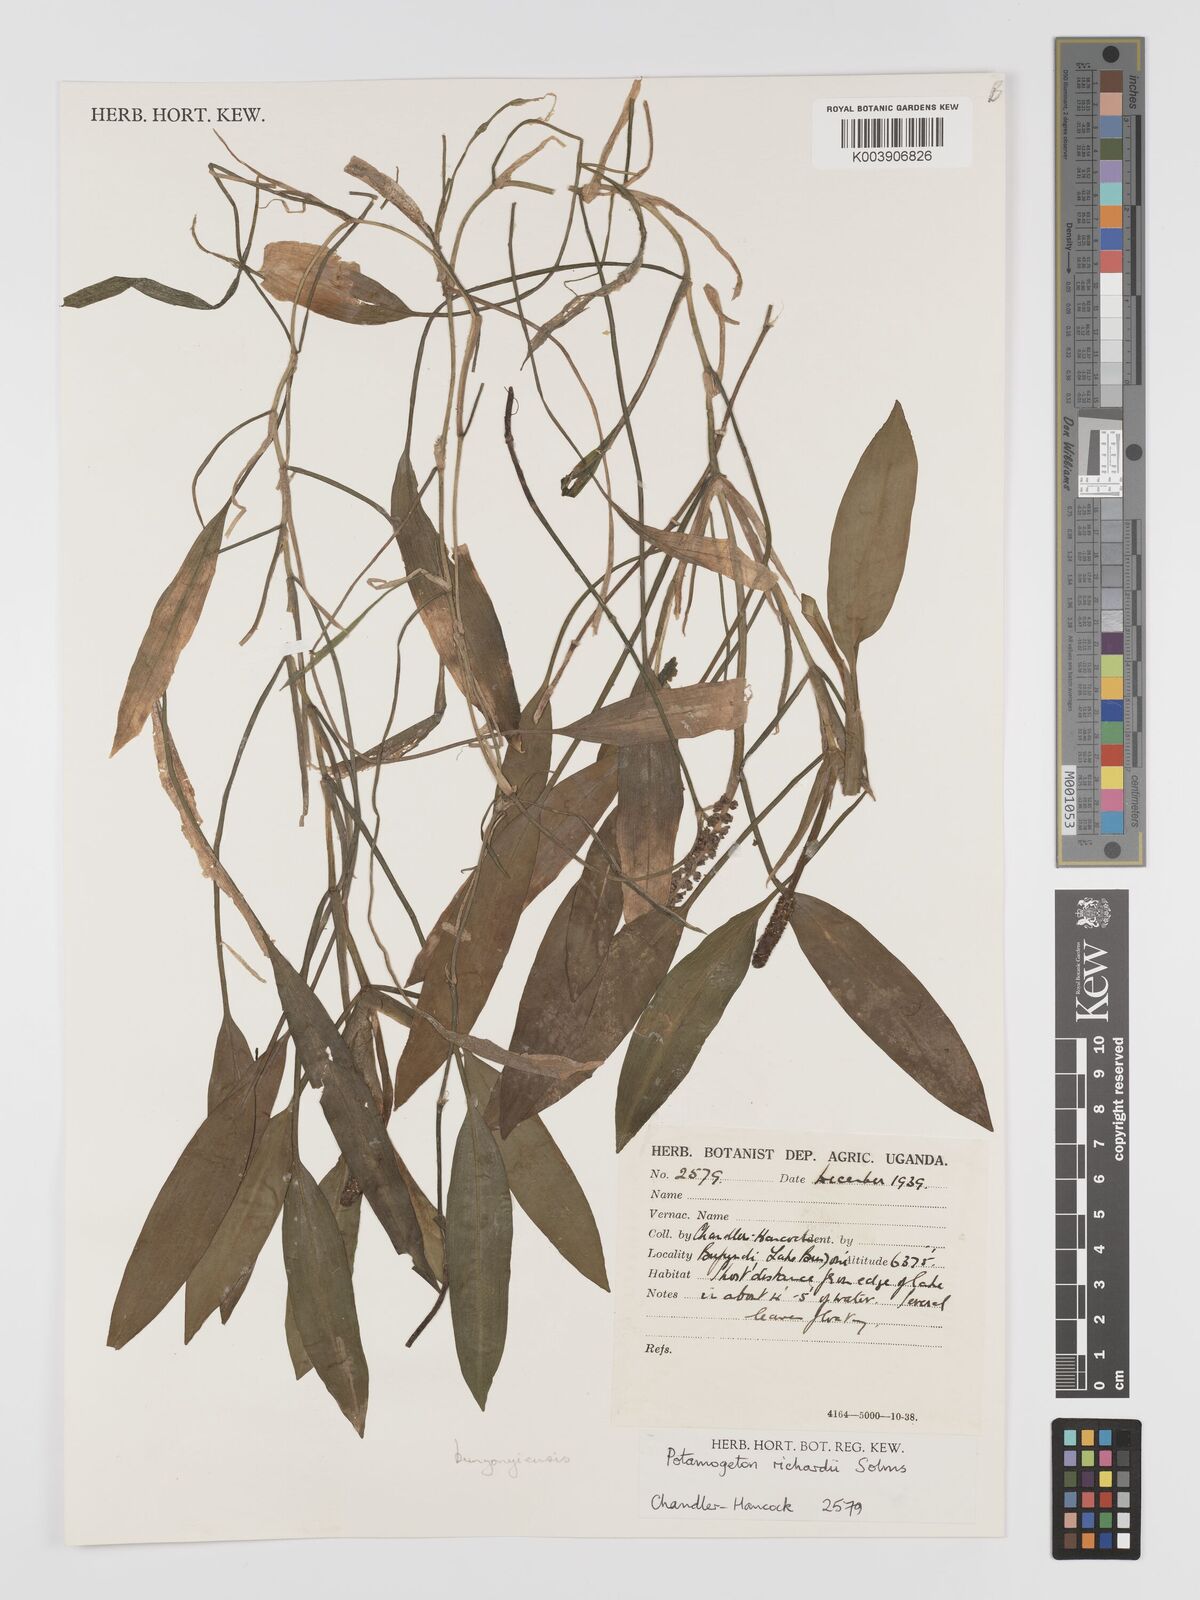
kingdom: Plantae
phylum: Tracheophyta
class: Liliopsida
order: Alismatales
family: Potamogetonaceae
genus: Potamogeton
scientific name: Potamogeton schweinfurthii
